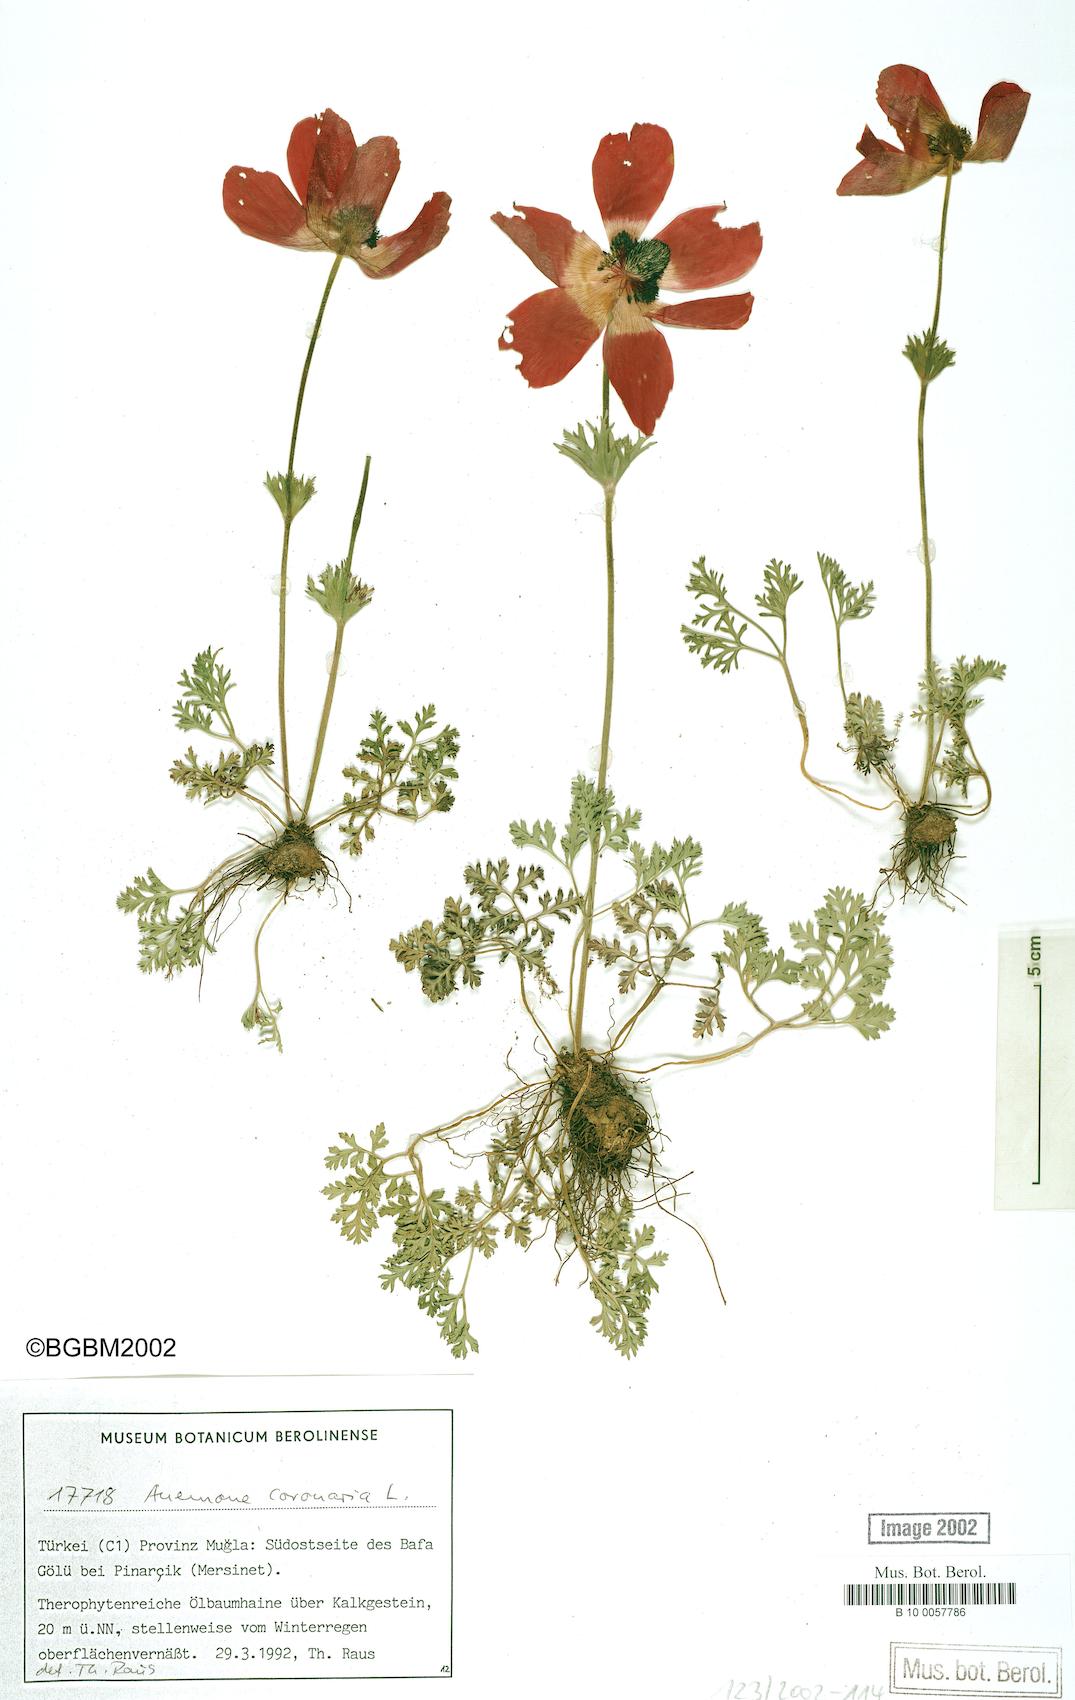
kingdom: Plantae
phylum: Tracheophyta
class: Magnoliopsida
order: Ranunculales
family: Ranunculaceae
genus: Anemone
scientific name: Anemone coronaria
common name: Poppy anemone
